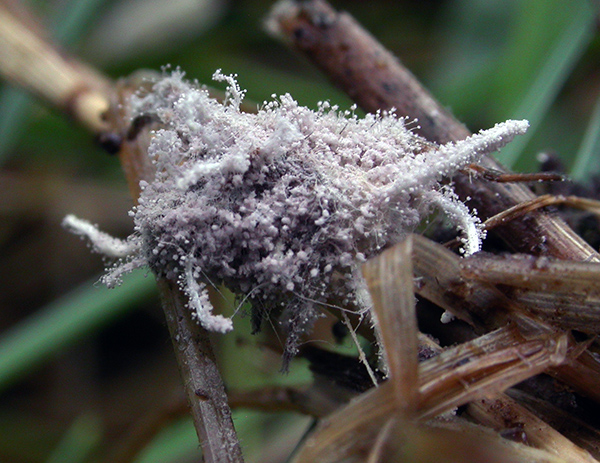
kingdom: Fungi
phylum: Ascomycota
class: Sordariomycetes
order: Hypocreales
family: Cordycipitaceae
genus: Gibellula
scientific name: Gibellula pulchra
